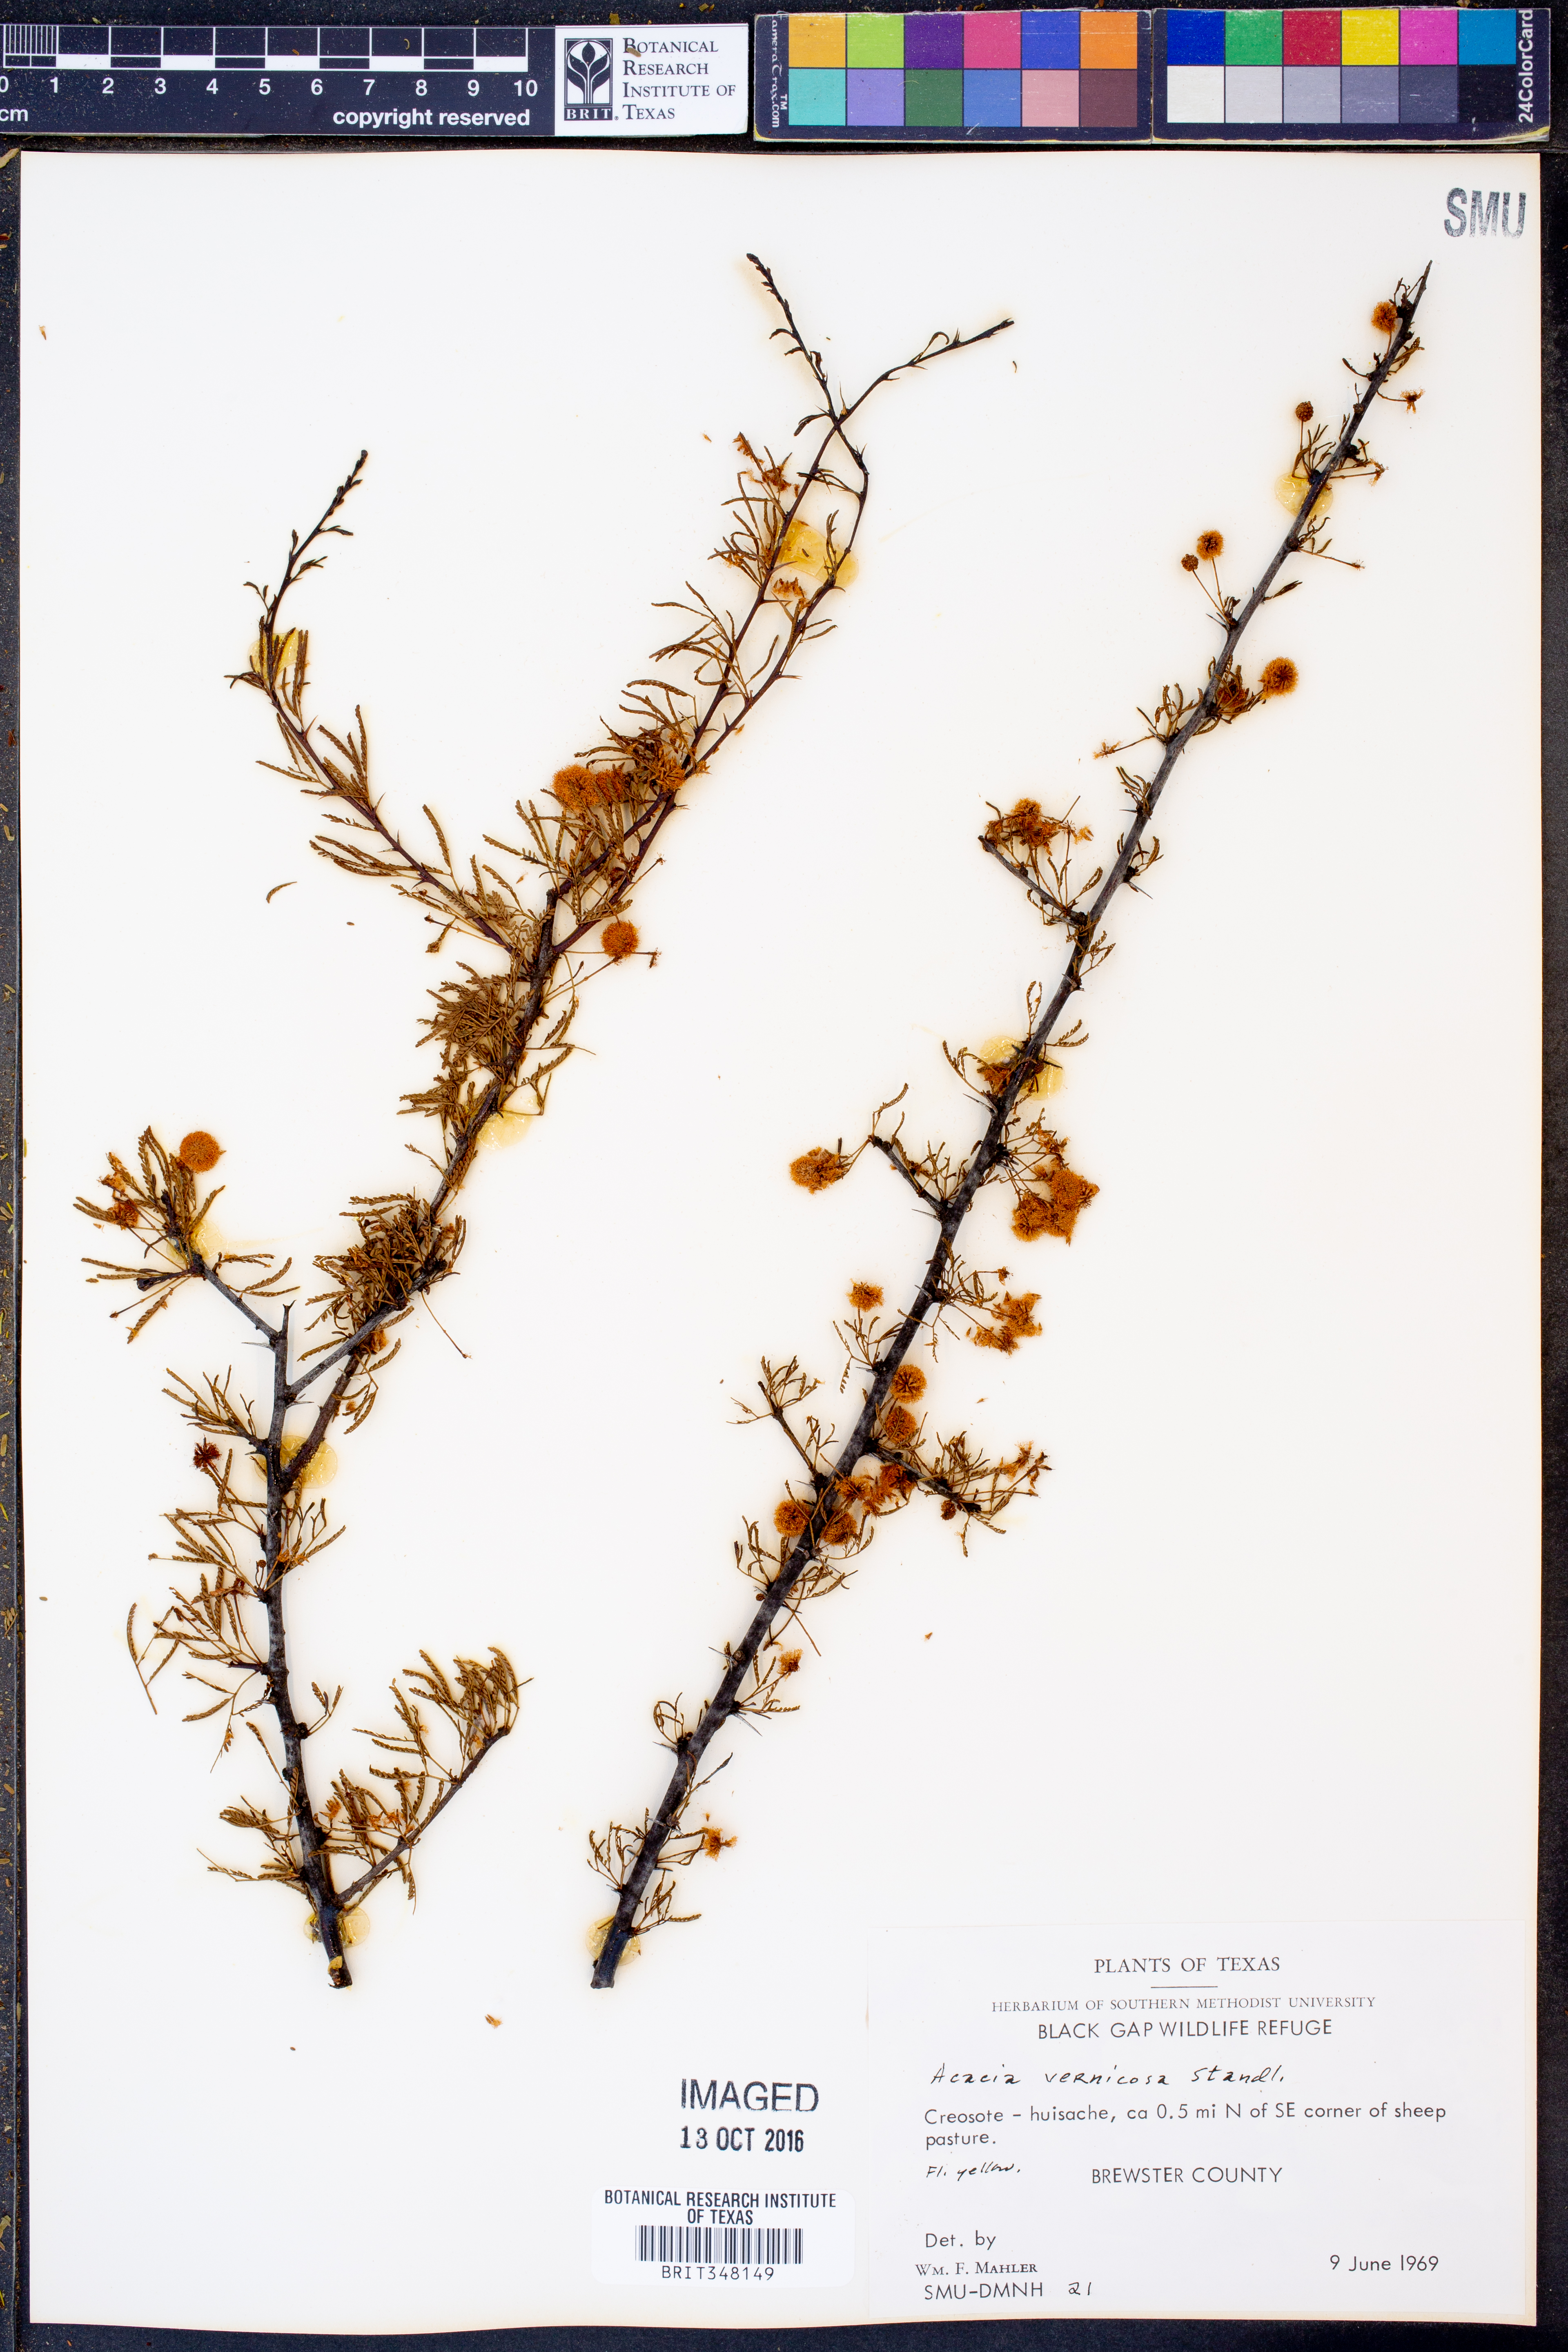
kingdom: Plantae
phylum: Tracheophyta
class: Magnoliopsida
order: Fabales
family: Fabaceae
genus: Vachellia
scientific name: Vachellia vernicosa
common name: Viscid acacia
